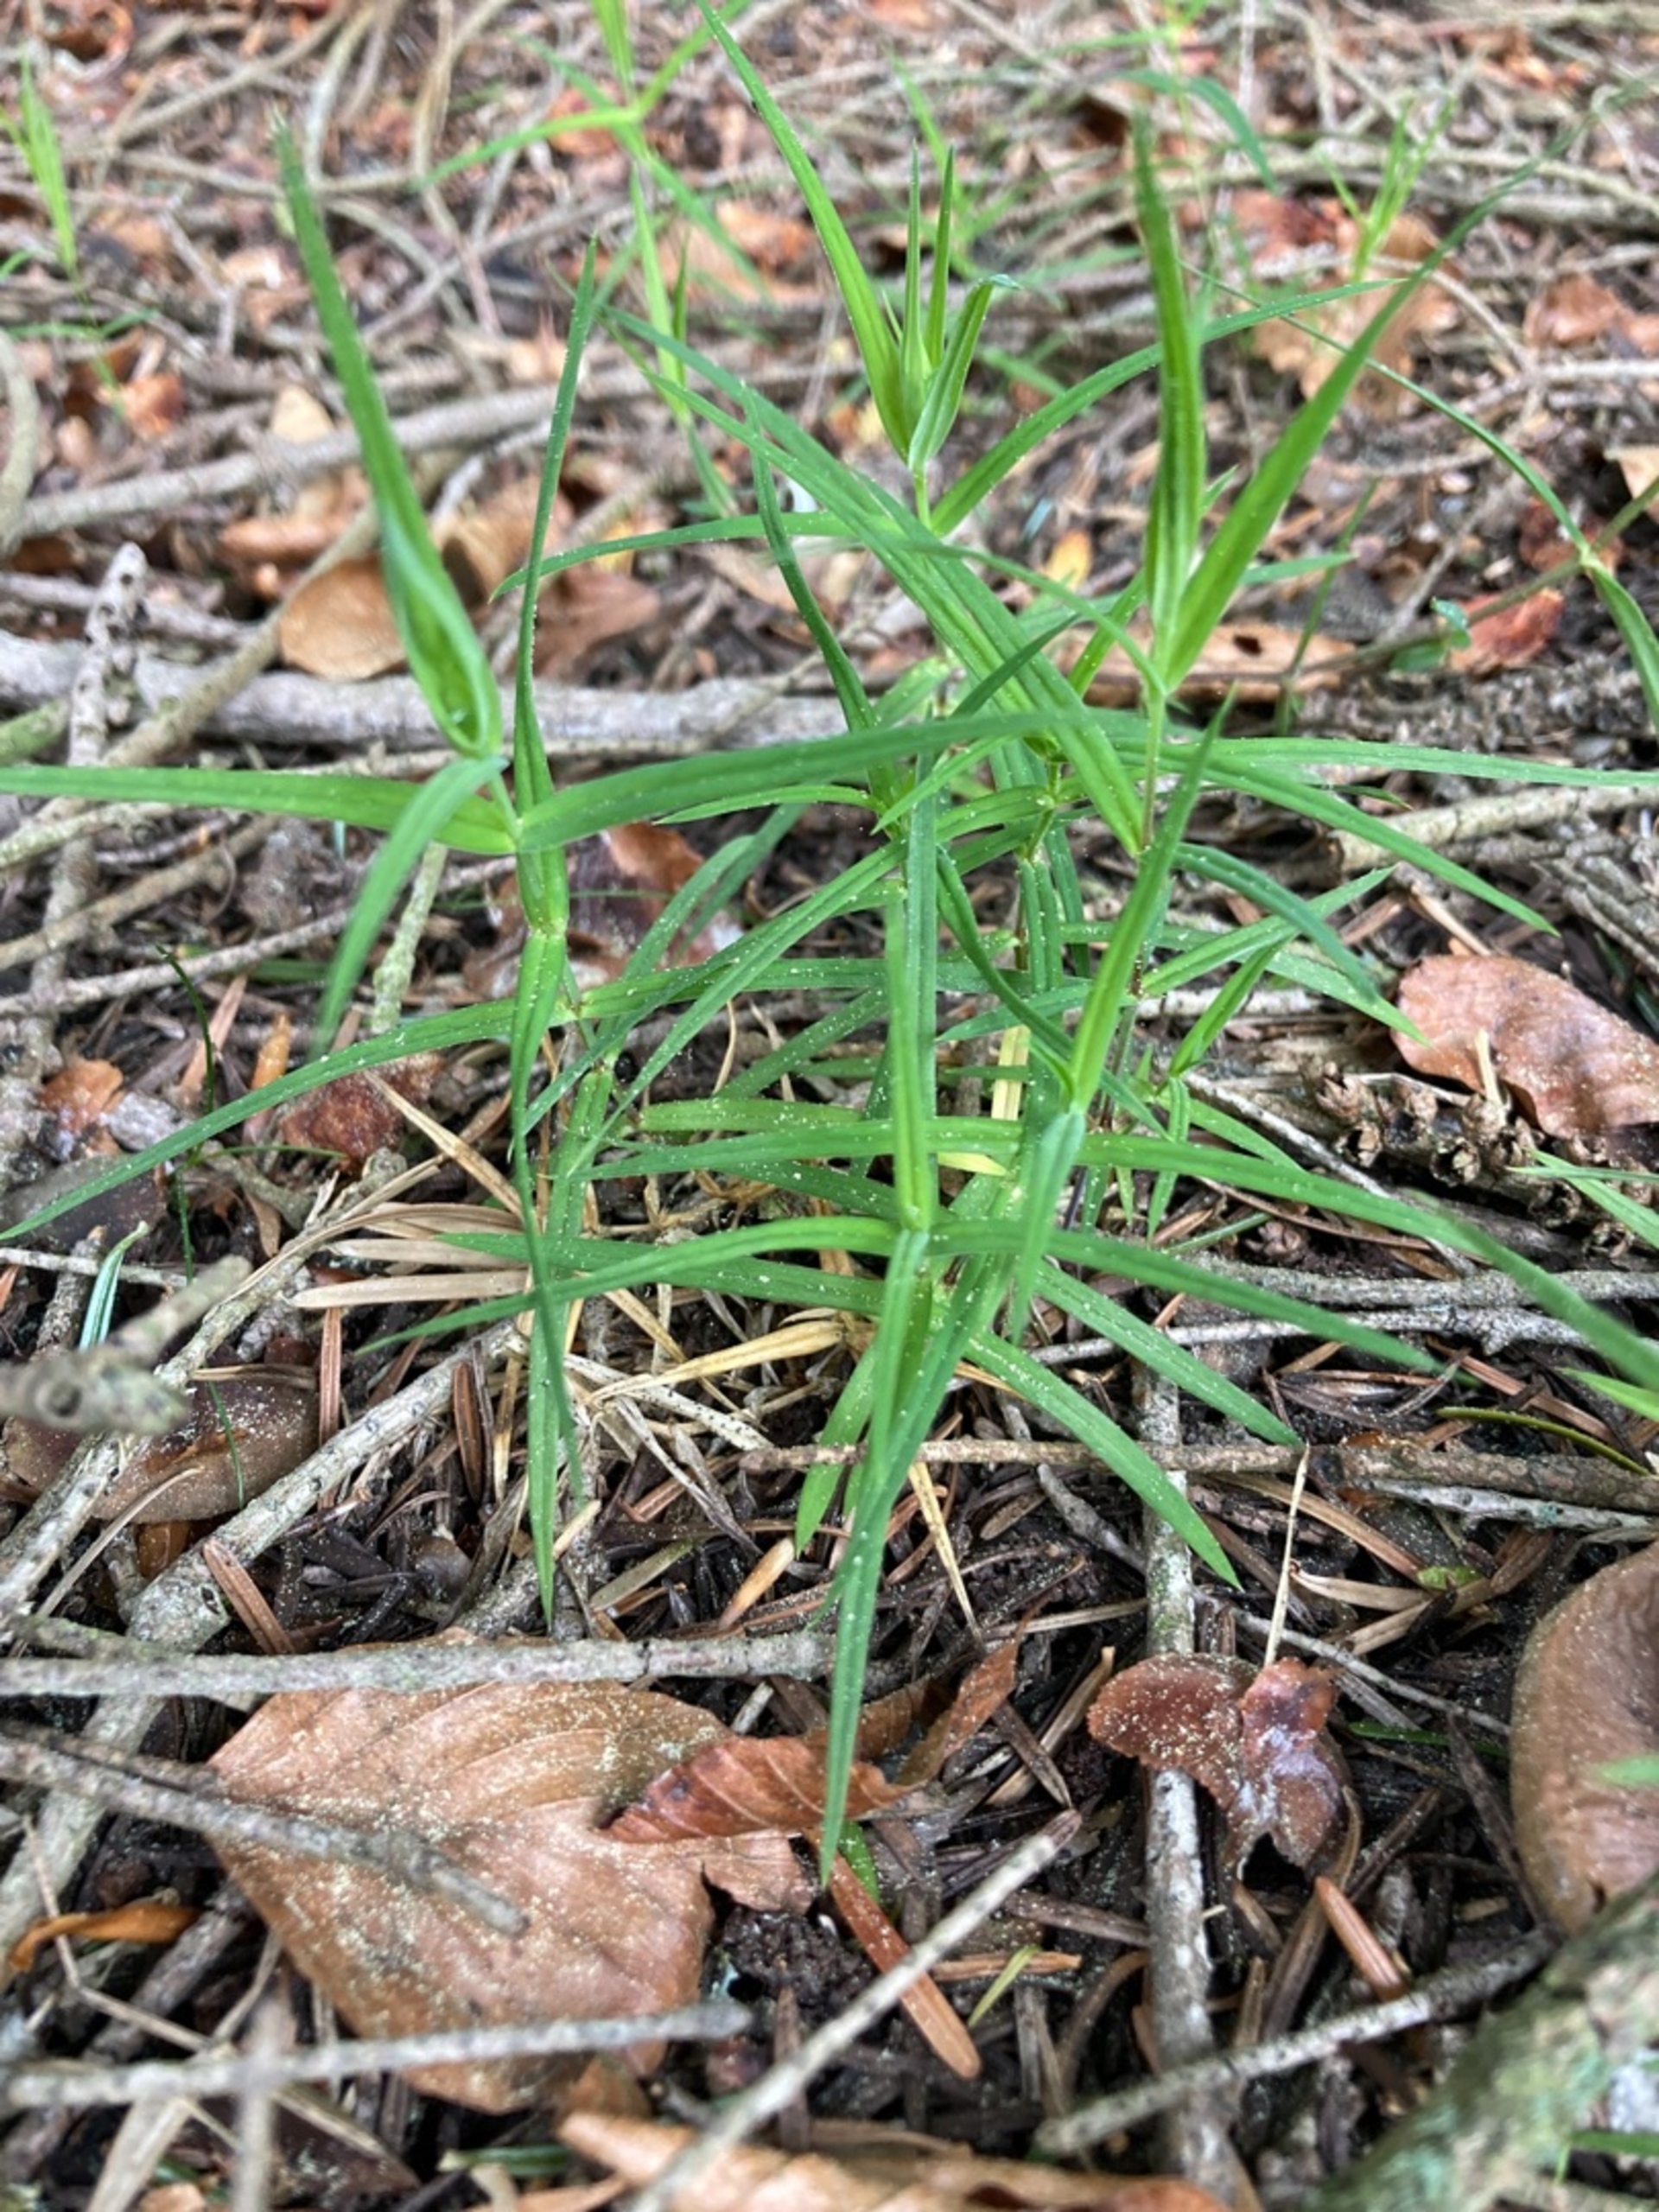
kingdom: Plantae
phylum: Tracheophyta
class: Magnoliopsida
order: Caryophyllales
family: Caryophyllaceae
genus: Rabelera
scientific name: Rabelera holostea
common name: Stor fladstjerne
